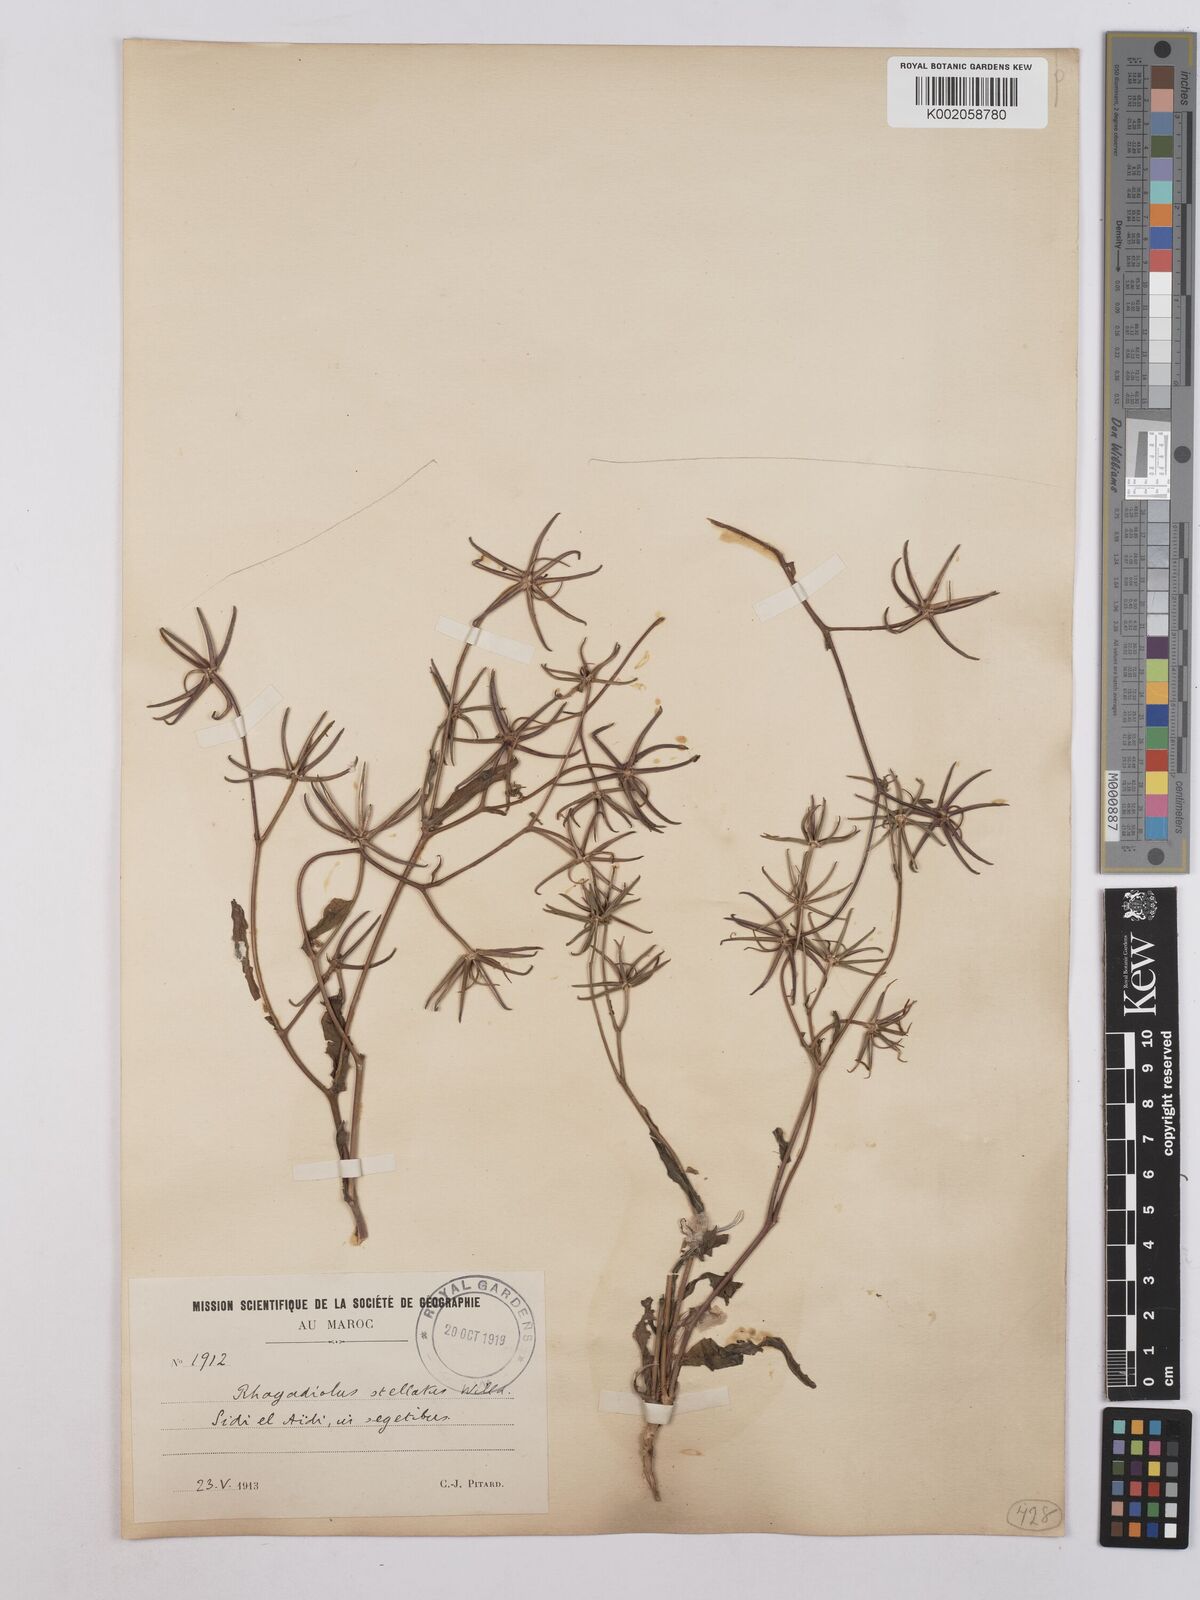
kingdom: Plantae
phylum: Tracheophyta
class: Magnoliopsida
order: Asterales
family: Asteraceae
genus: Rhagadiolus
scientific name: Rhagadiolus stellatus
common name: Star hawkbit
